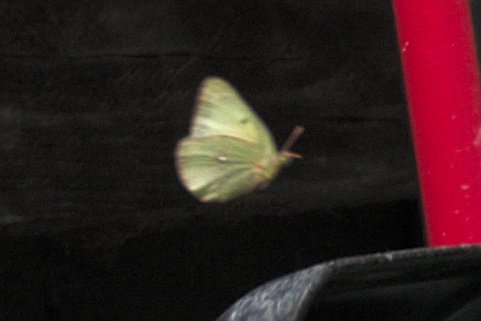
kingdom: Animalia
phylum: Arthropoda
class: Insecta
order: Lepidoptera
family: Pieridae
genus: Colias
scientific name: Colias philodice
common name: Clouded Sulphur
